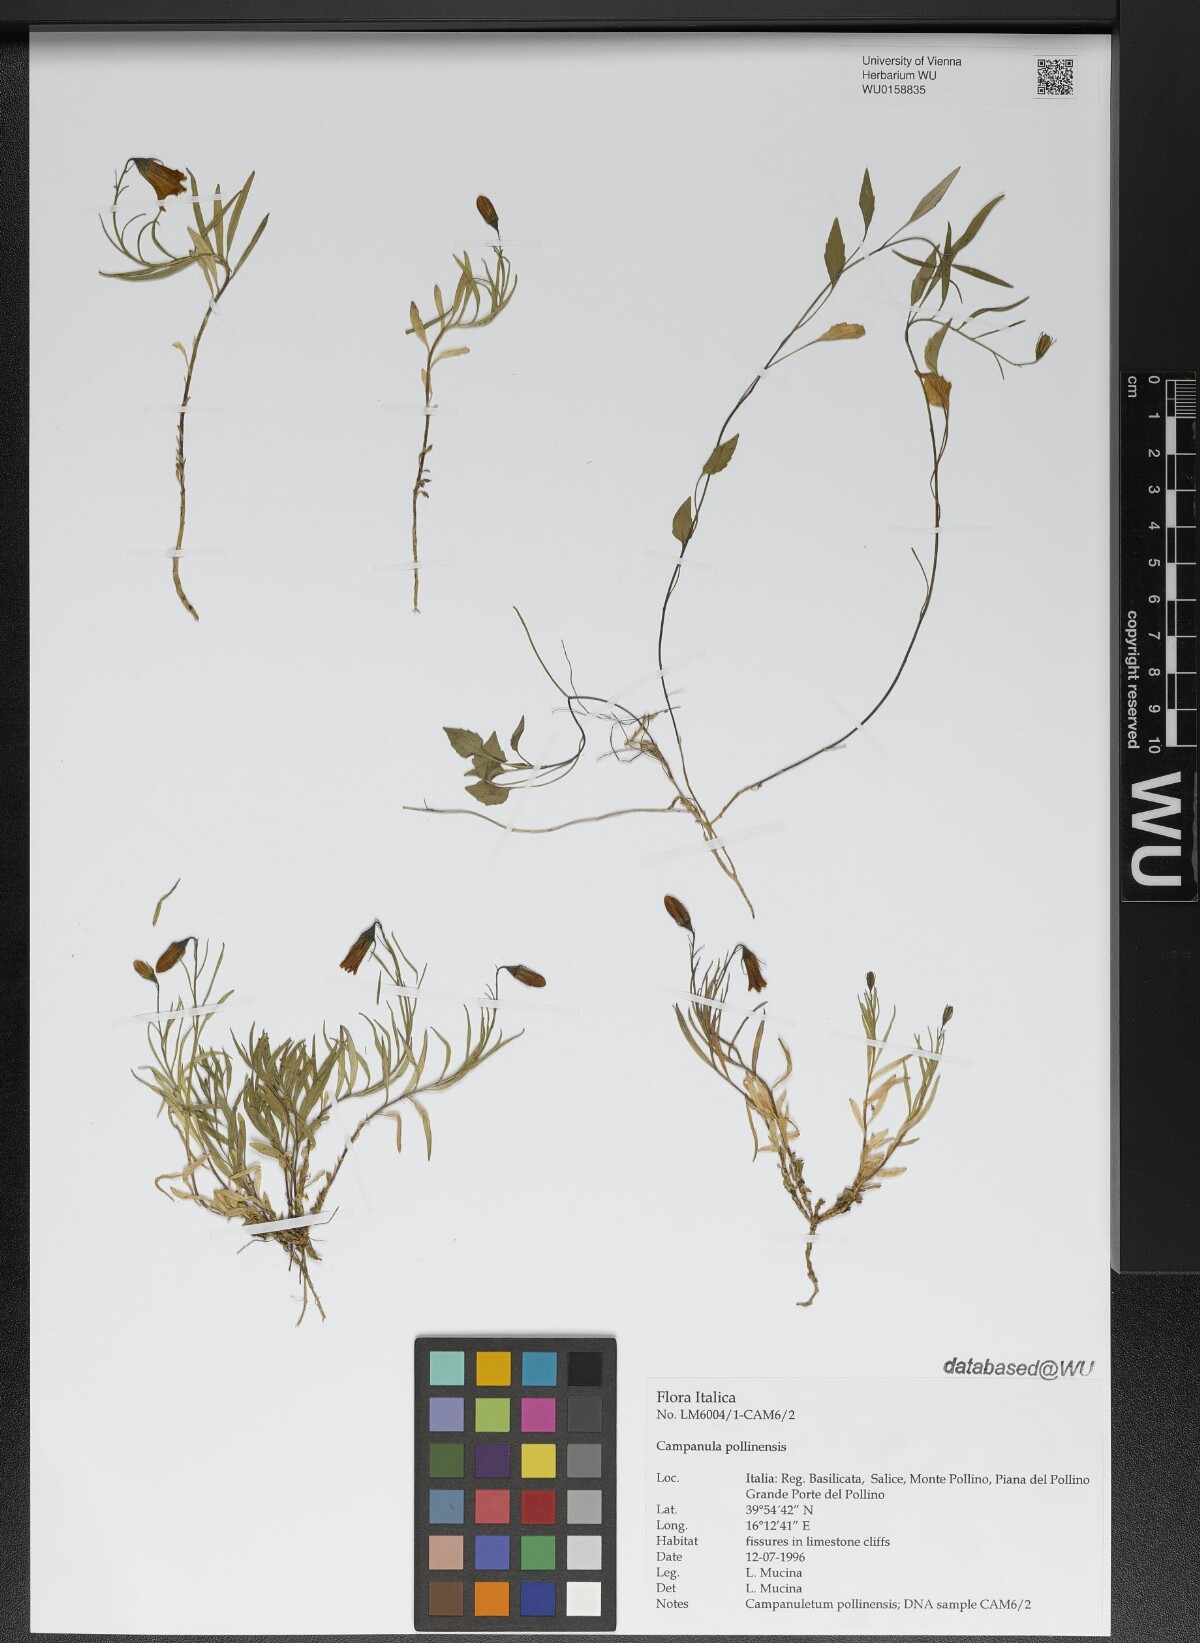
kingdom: Plantae
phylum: Tracheophyta
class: Magnoliopsida
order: Asterales
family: Campanulaceae
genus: Campanula
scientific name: Campanula pollinensis
